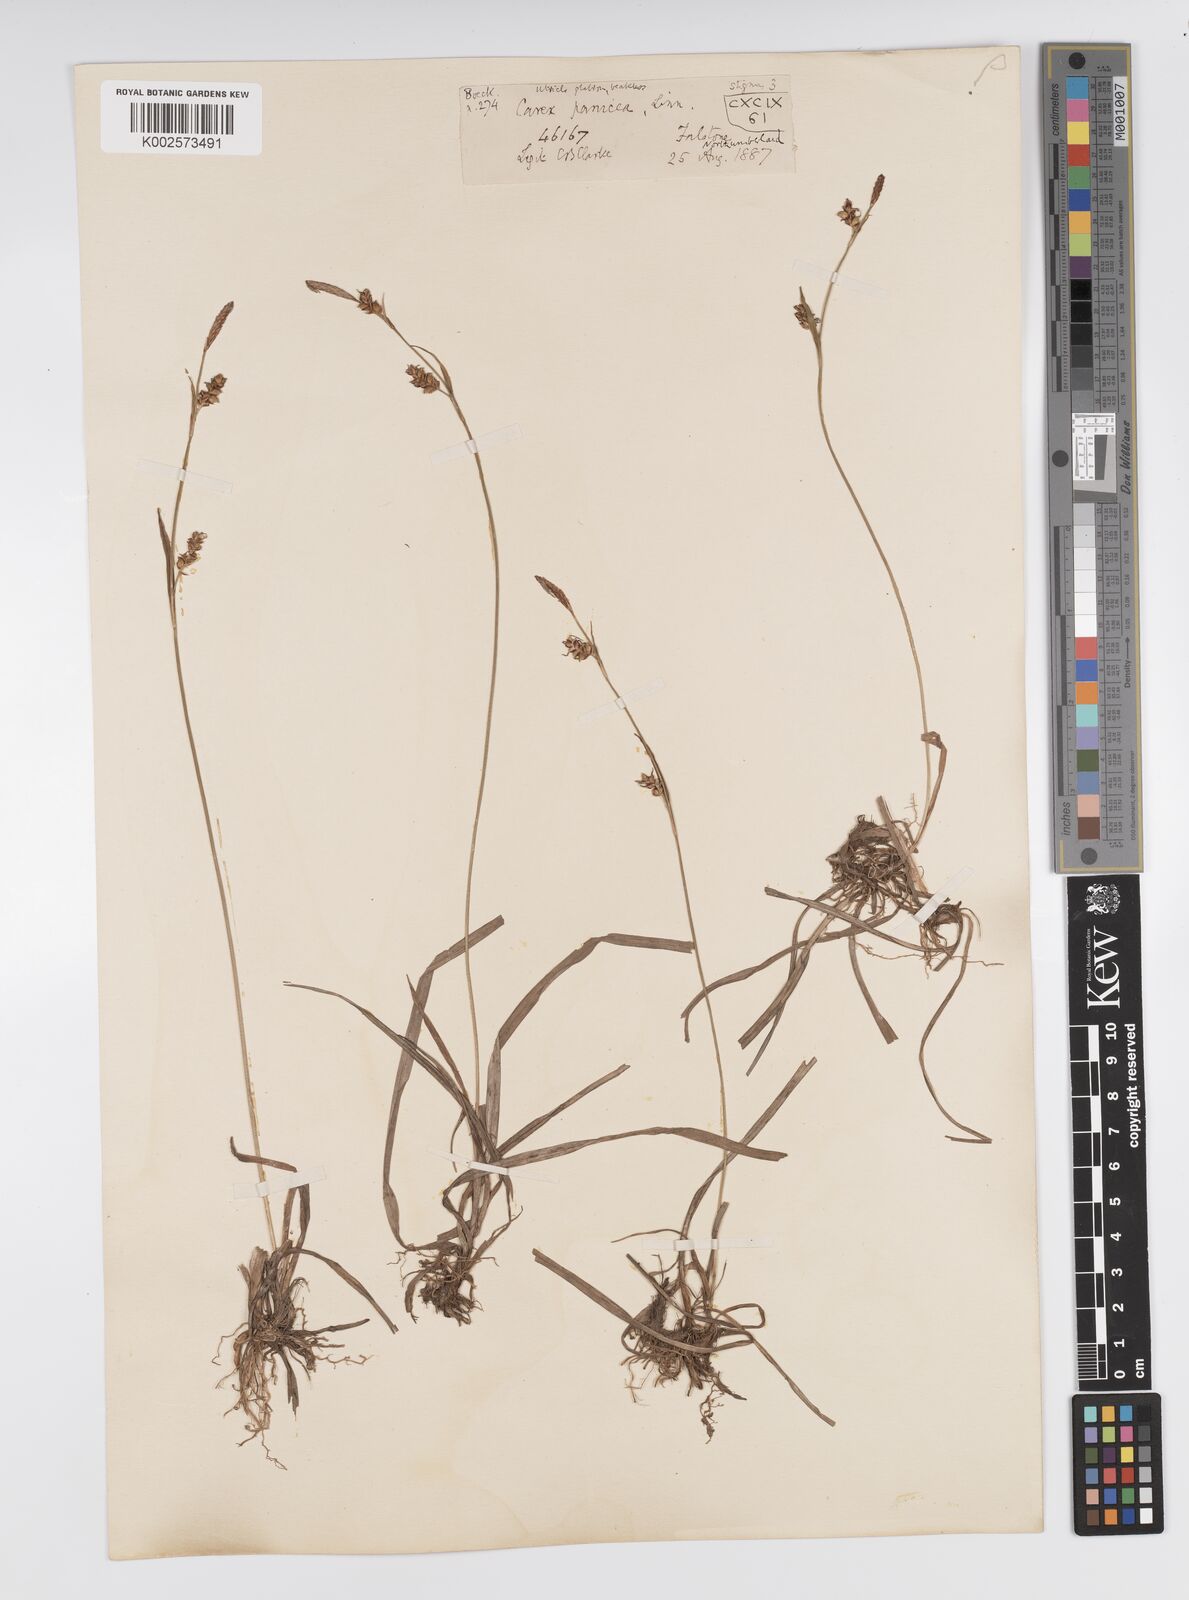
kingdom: Plantae
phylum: Tracheophyta
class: Liliopsida
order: Poales
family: Cyperaceae
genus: Carex
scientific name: Carex panicea
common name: Carnation sedge
